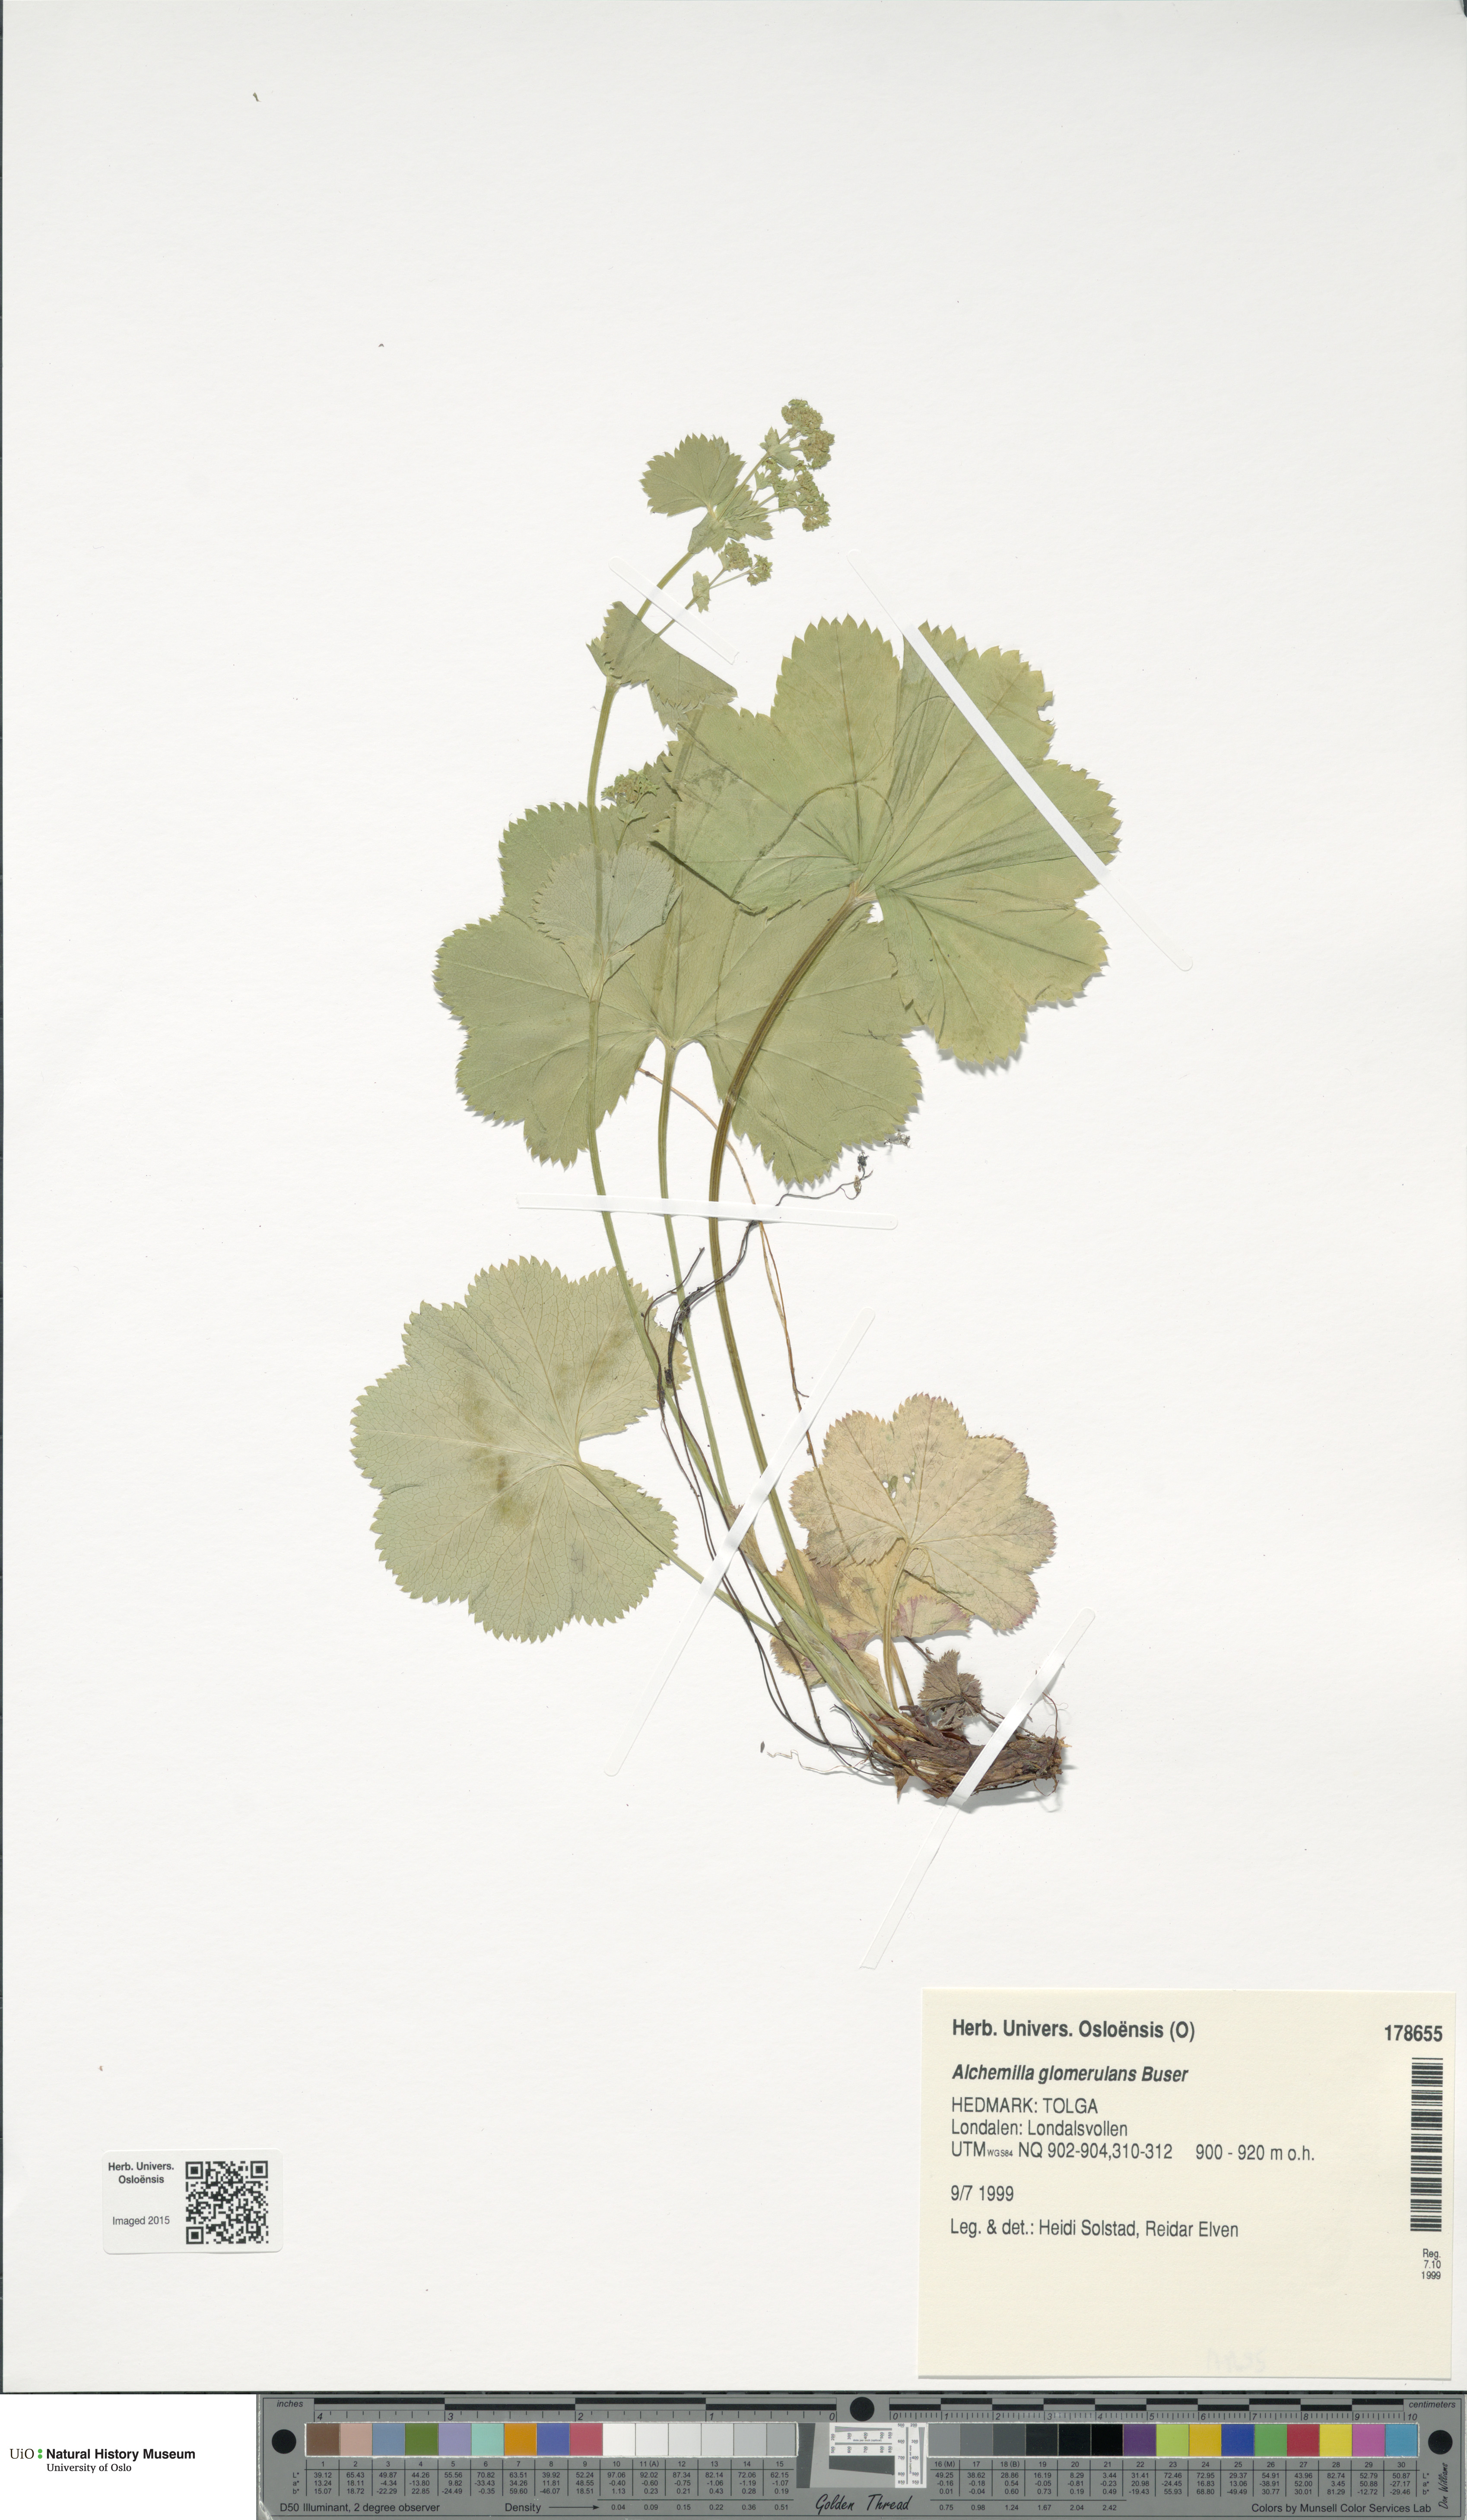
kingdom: Plantae
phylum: Tracheophyta
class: Magnoliopsida
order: Rosales
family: Rosaceae
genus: Alchemilla
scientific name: Alchemilla glomerulans
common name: Clustered lady's mantle
